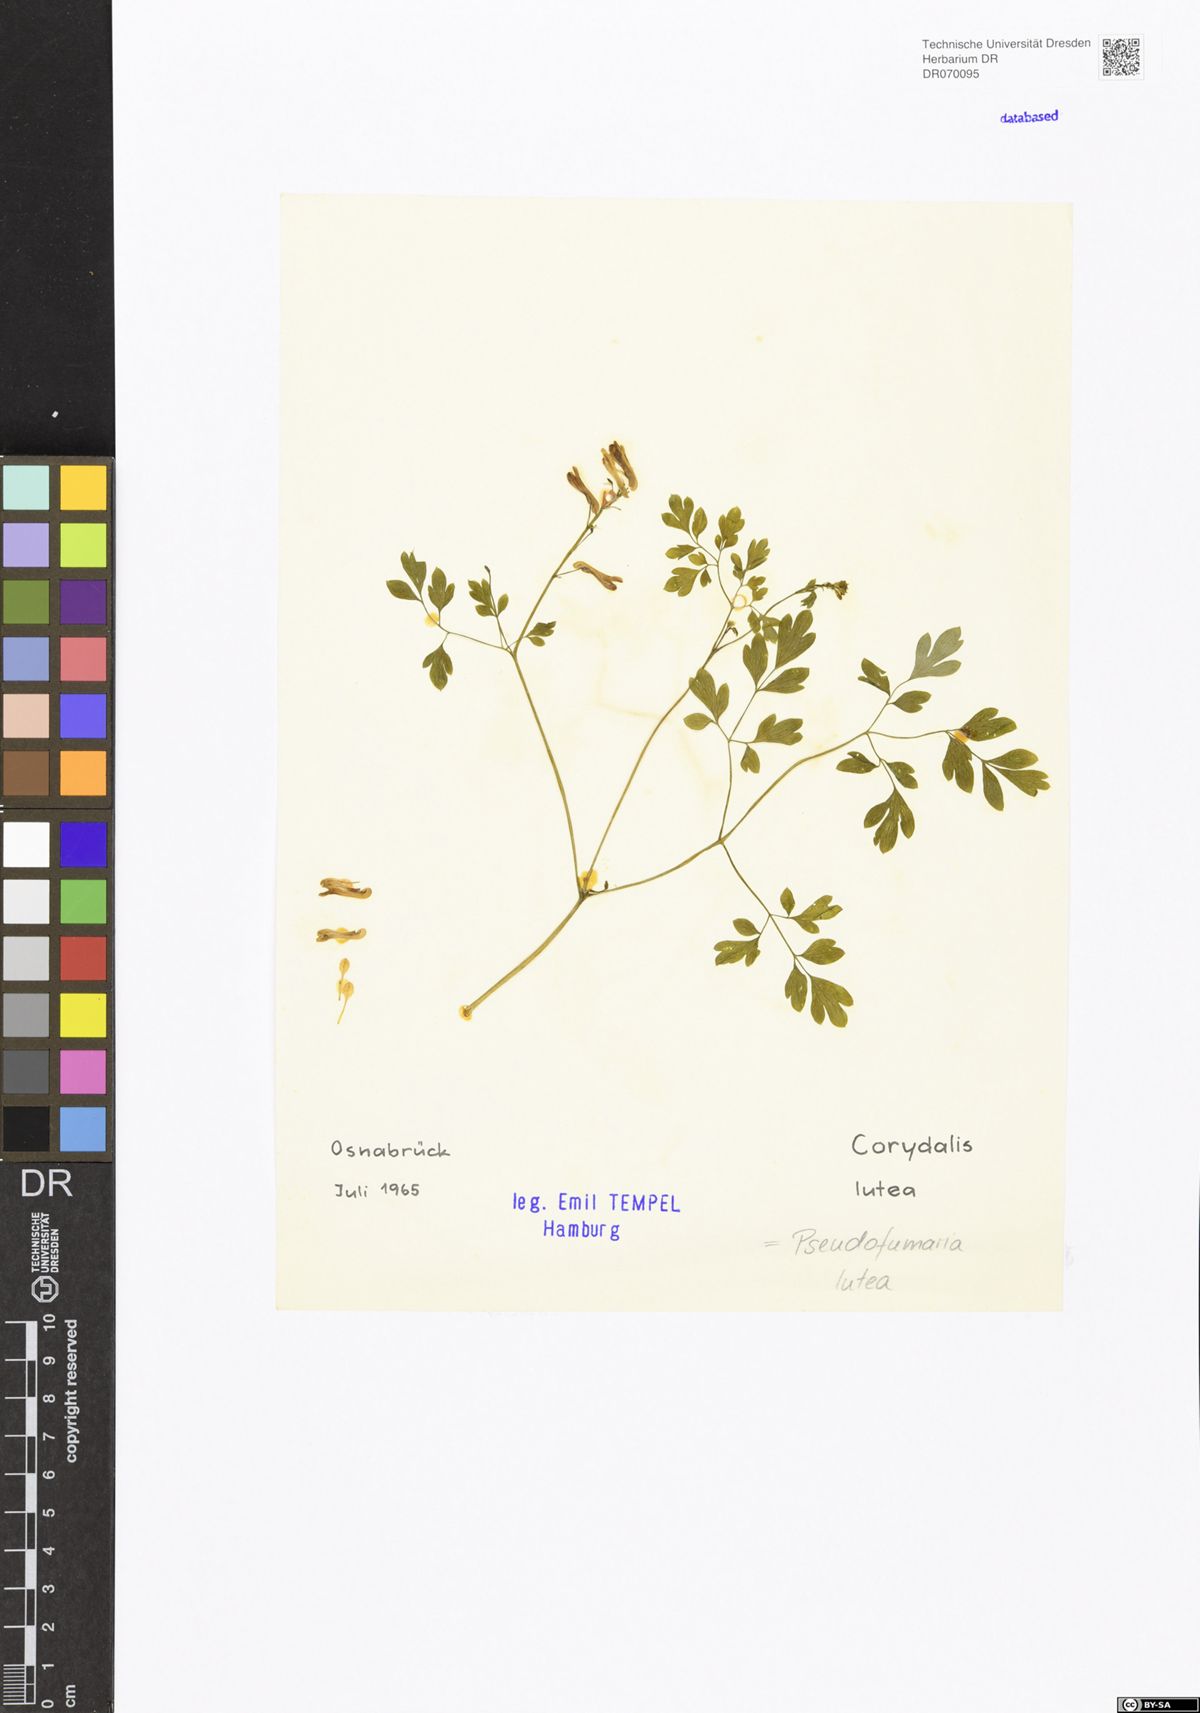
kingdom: Plantae
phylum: Tracheophyta
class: Magnoliopsida
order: Ranunculales
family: Papaveraceae
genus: Pseudofumaria
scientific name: Pseudofumaria lutea
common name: Yellow corydalis
